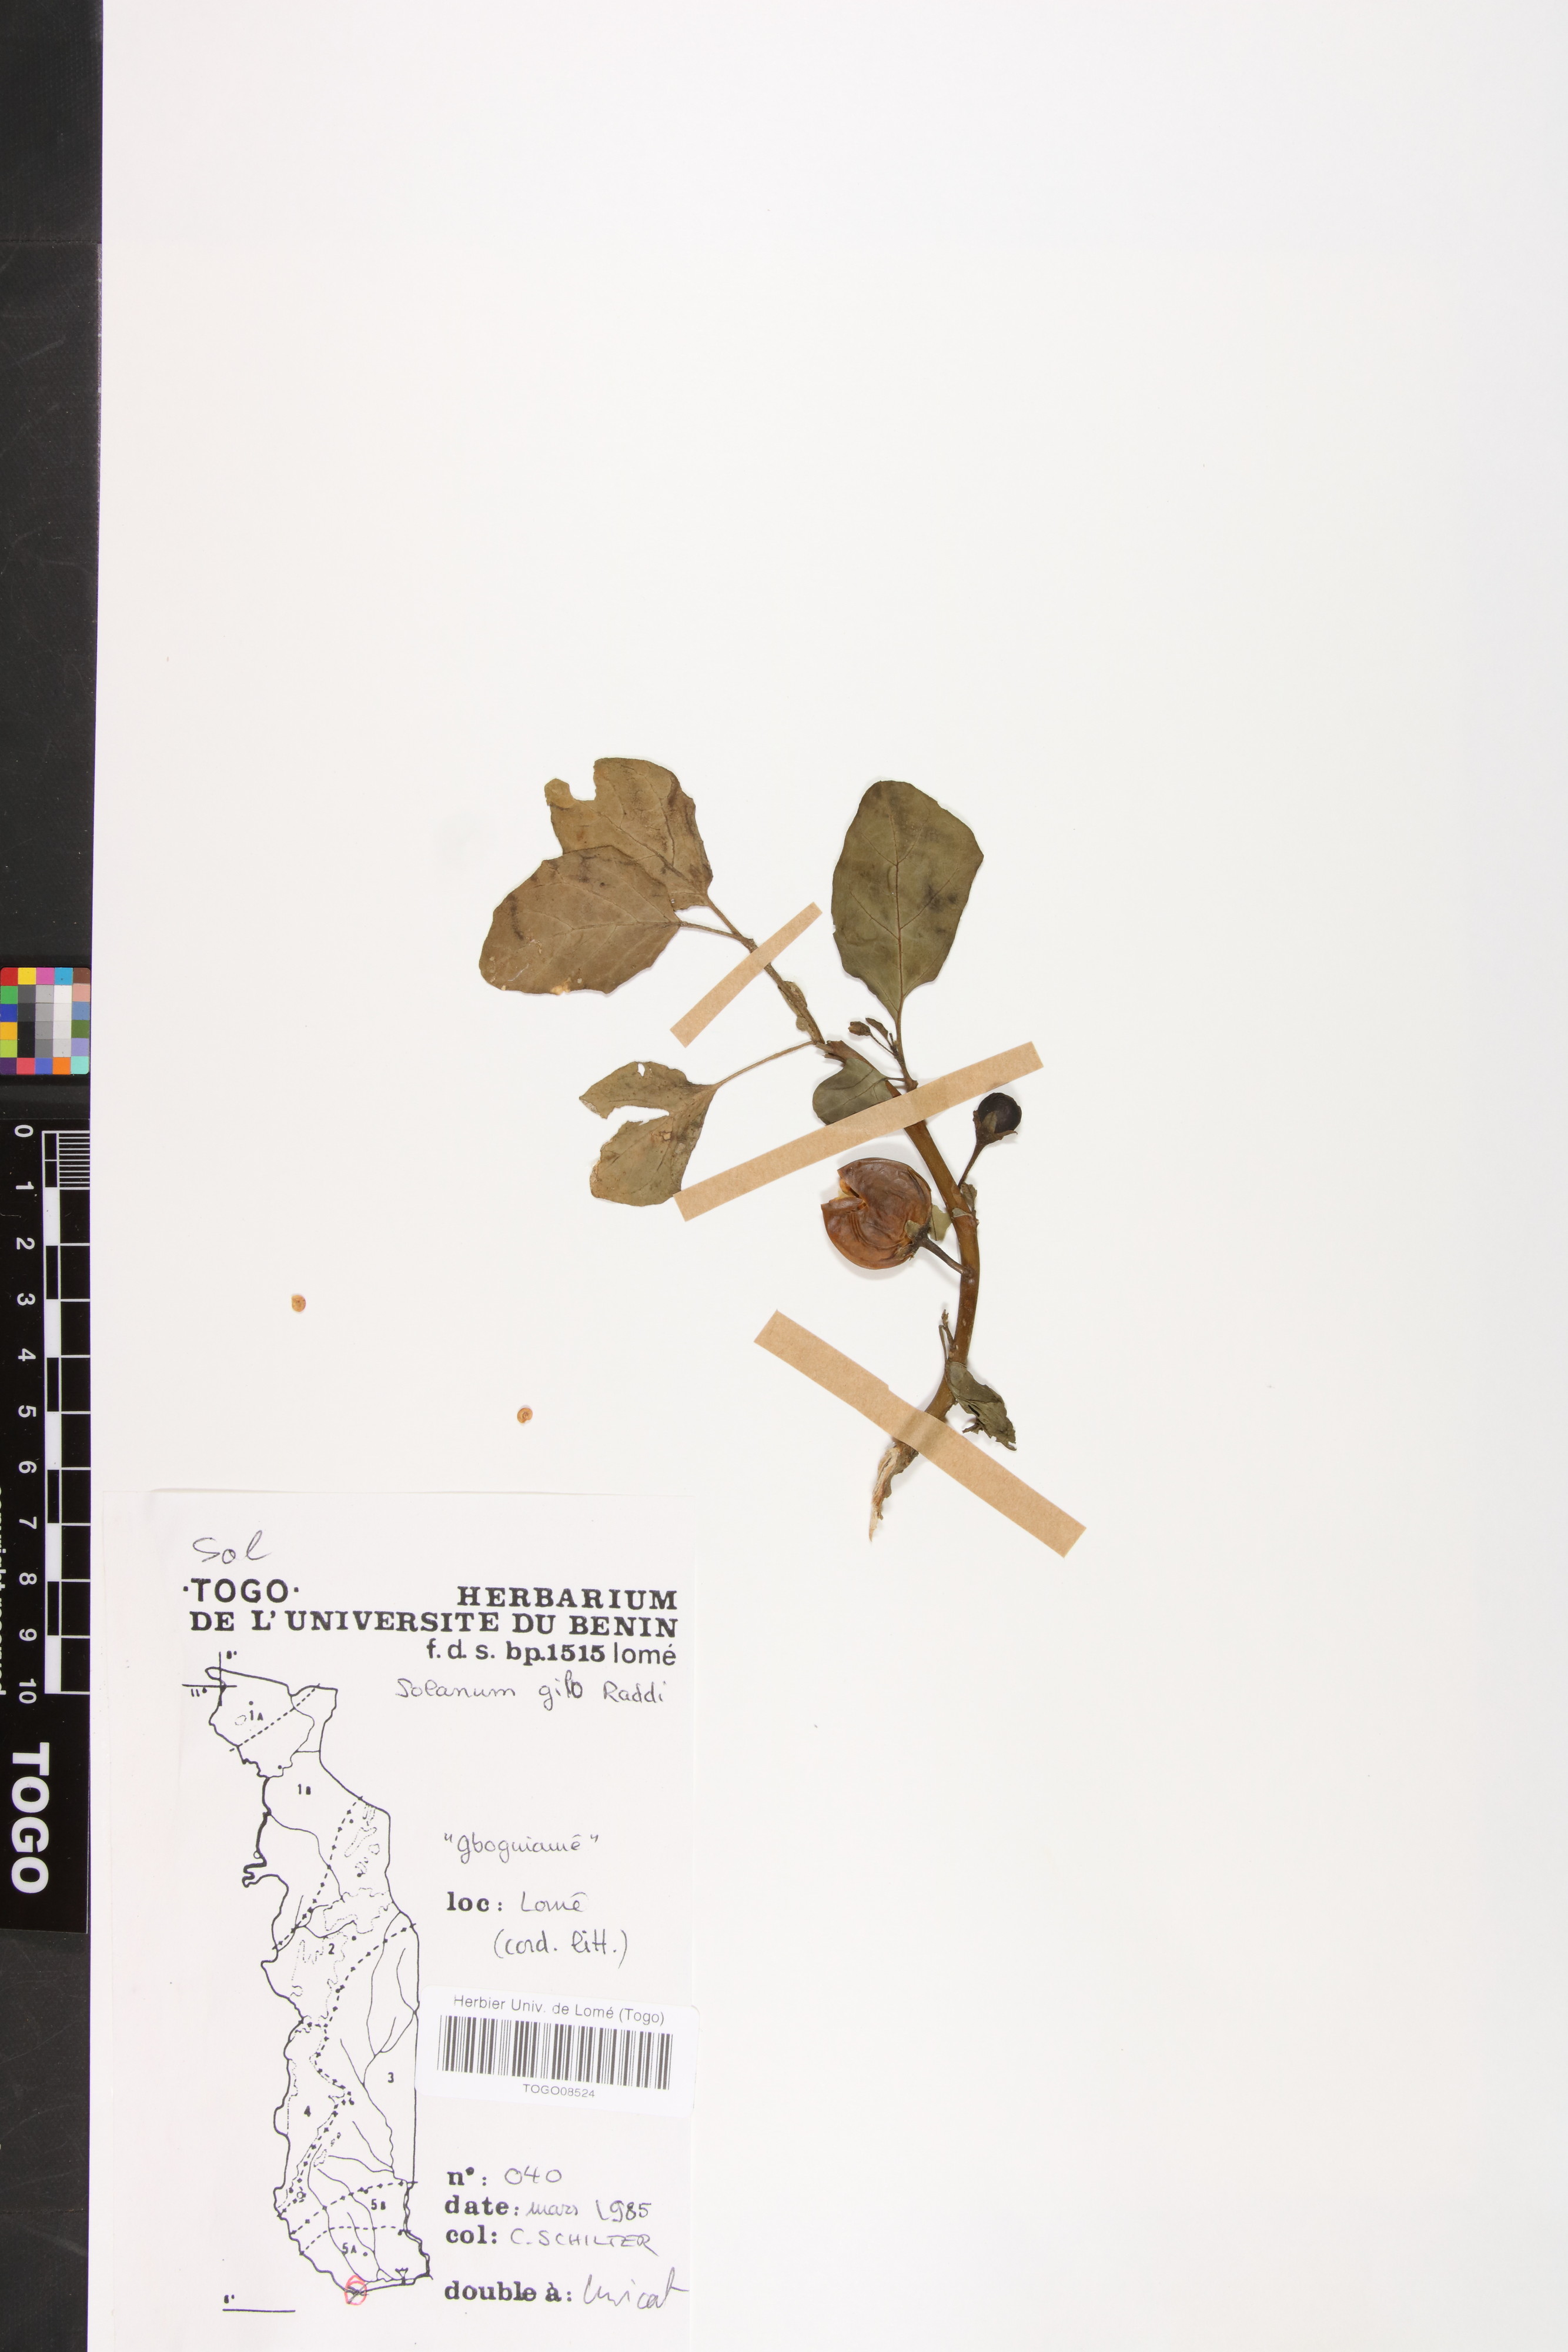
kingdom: Plantae
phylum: Tracheophyta
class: Magnoliopsida
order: Solanales
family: Solanaceae
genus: Solanum
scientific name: Solanum aethiopicum
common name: Gilo
